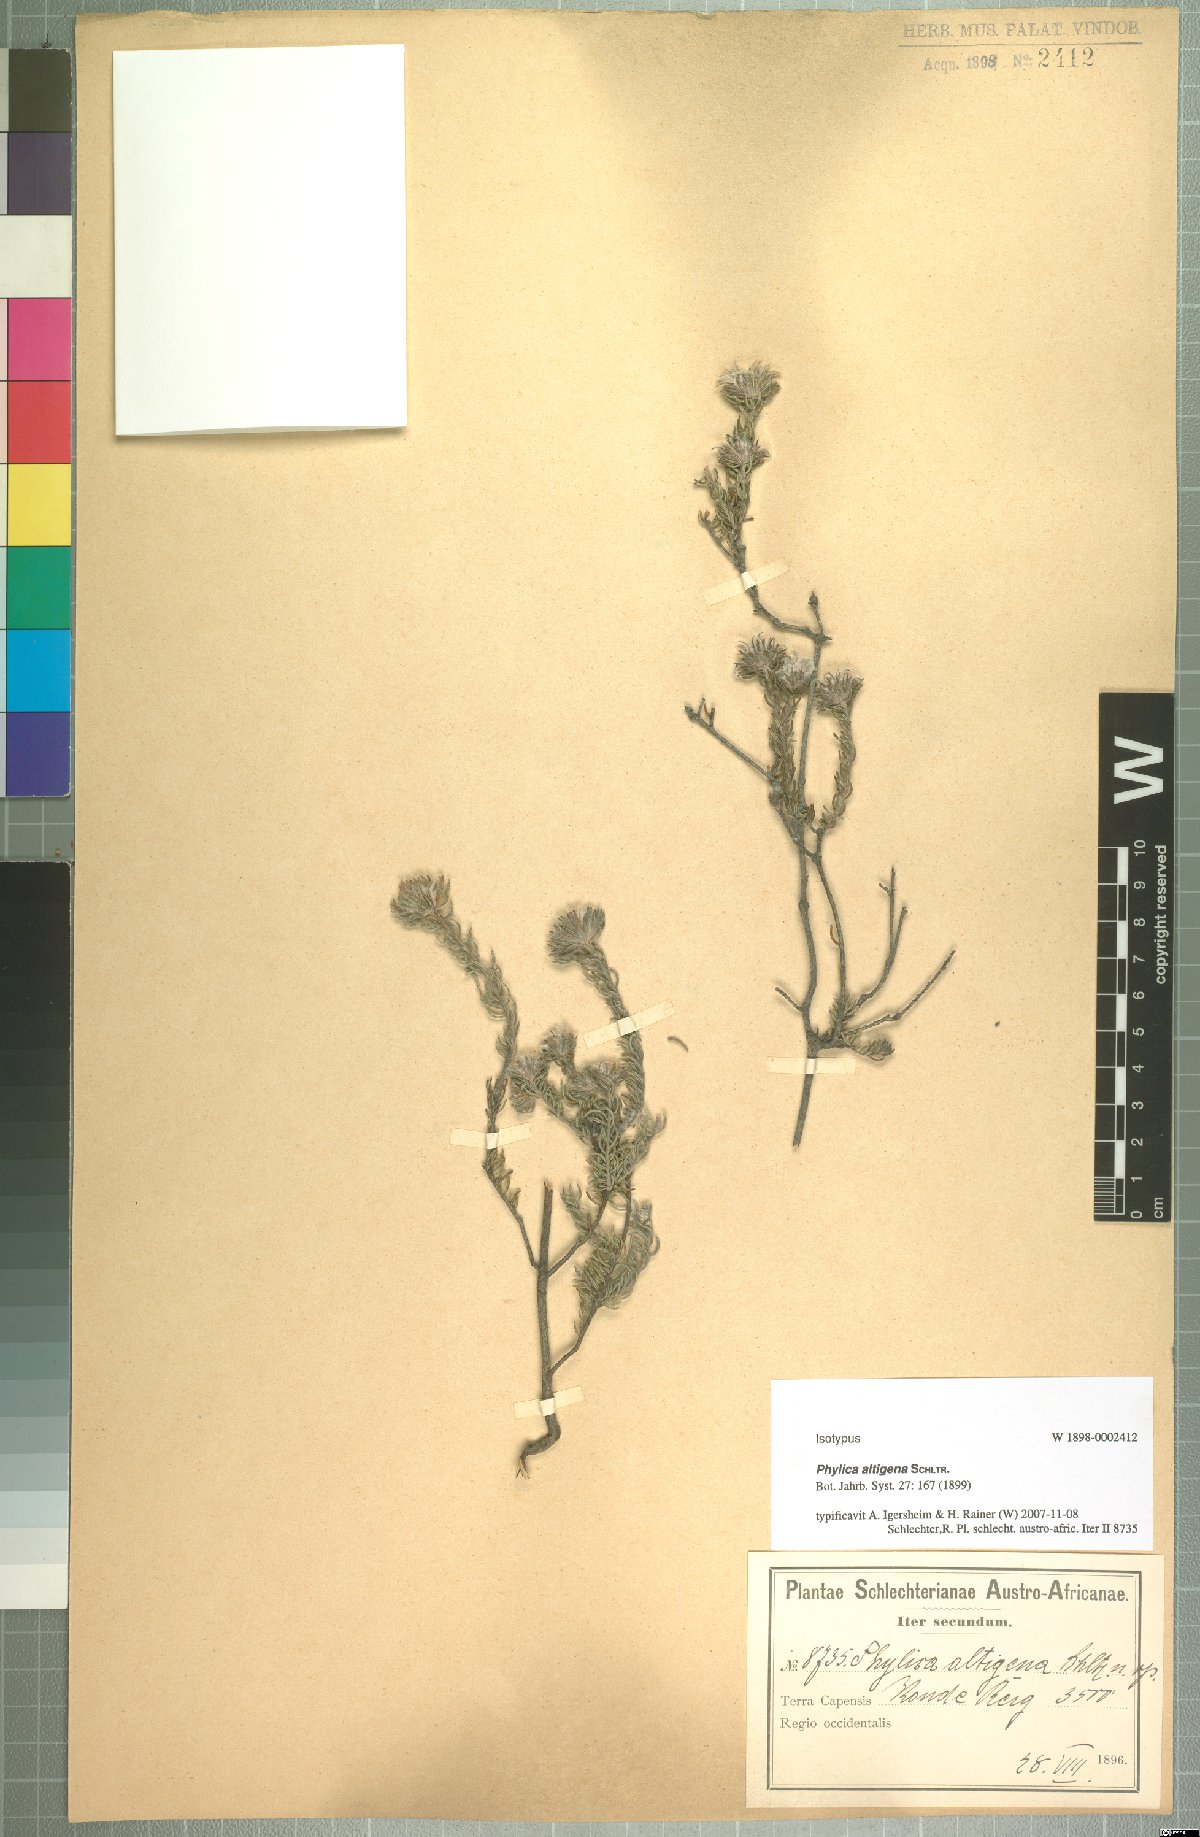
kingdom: Plantae
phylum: Tracheophyta
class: Magnoliopsida
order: Rosales
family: Rhamnaceae
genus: Phylica
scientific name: Phylica altigena
